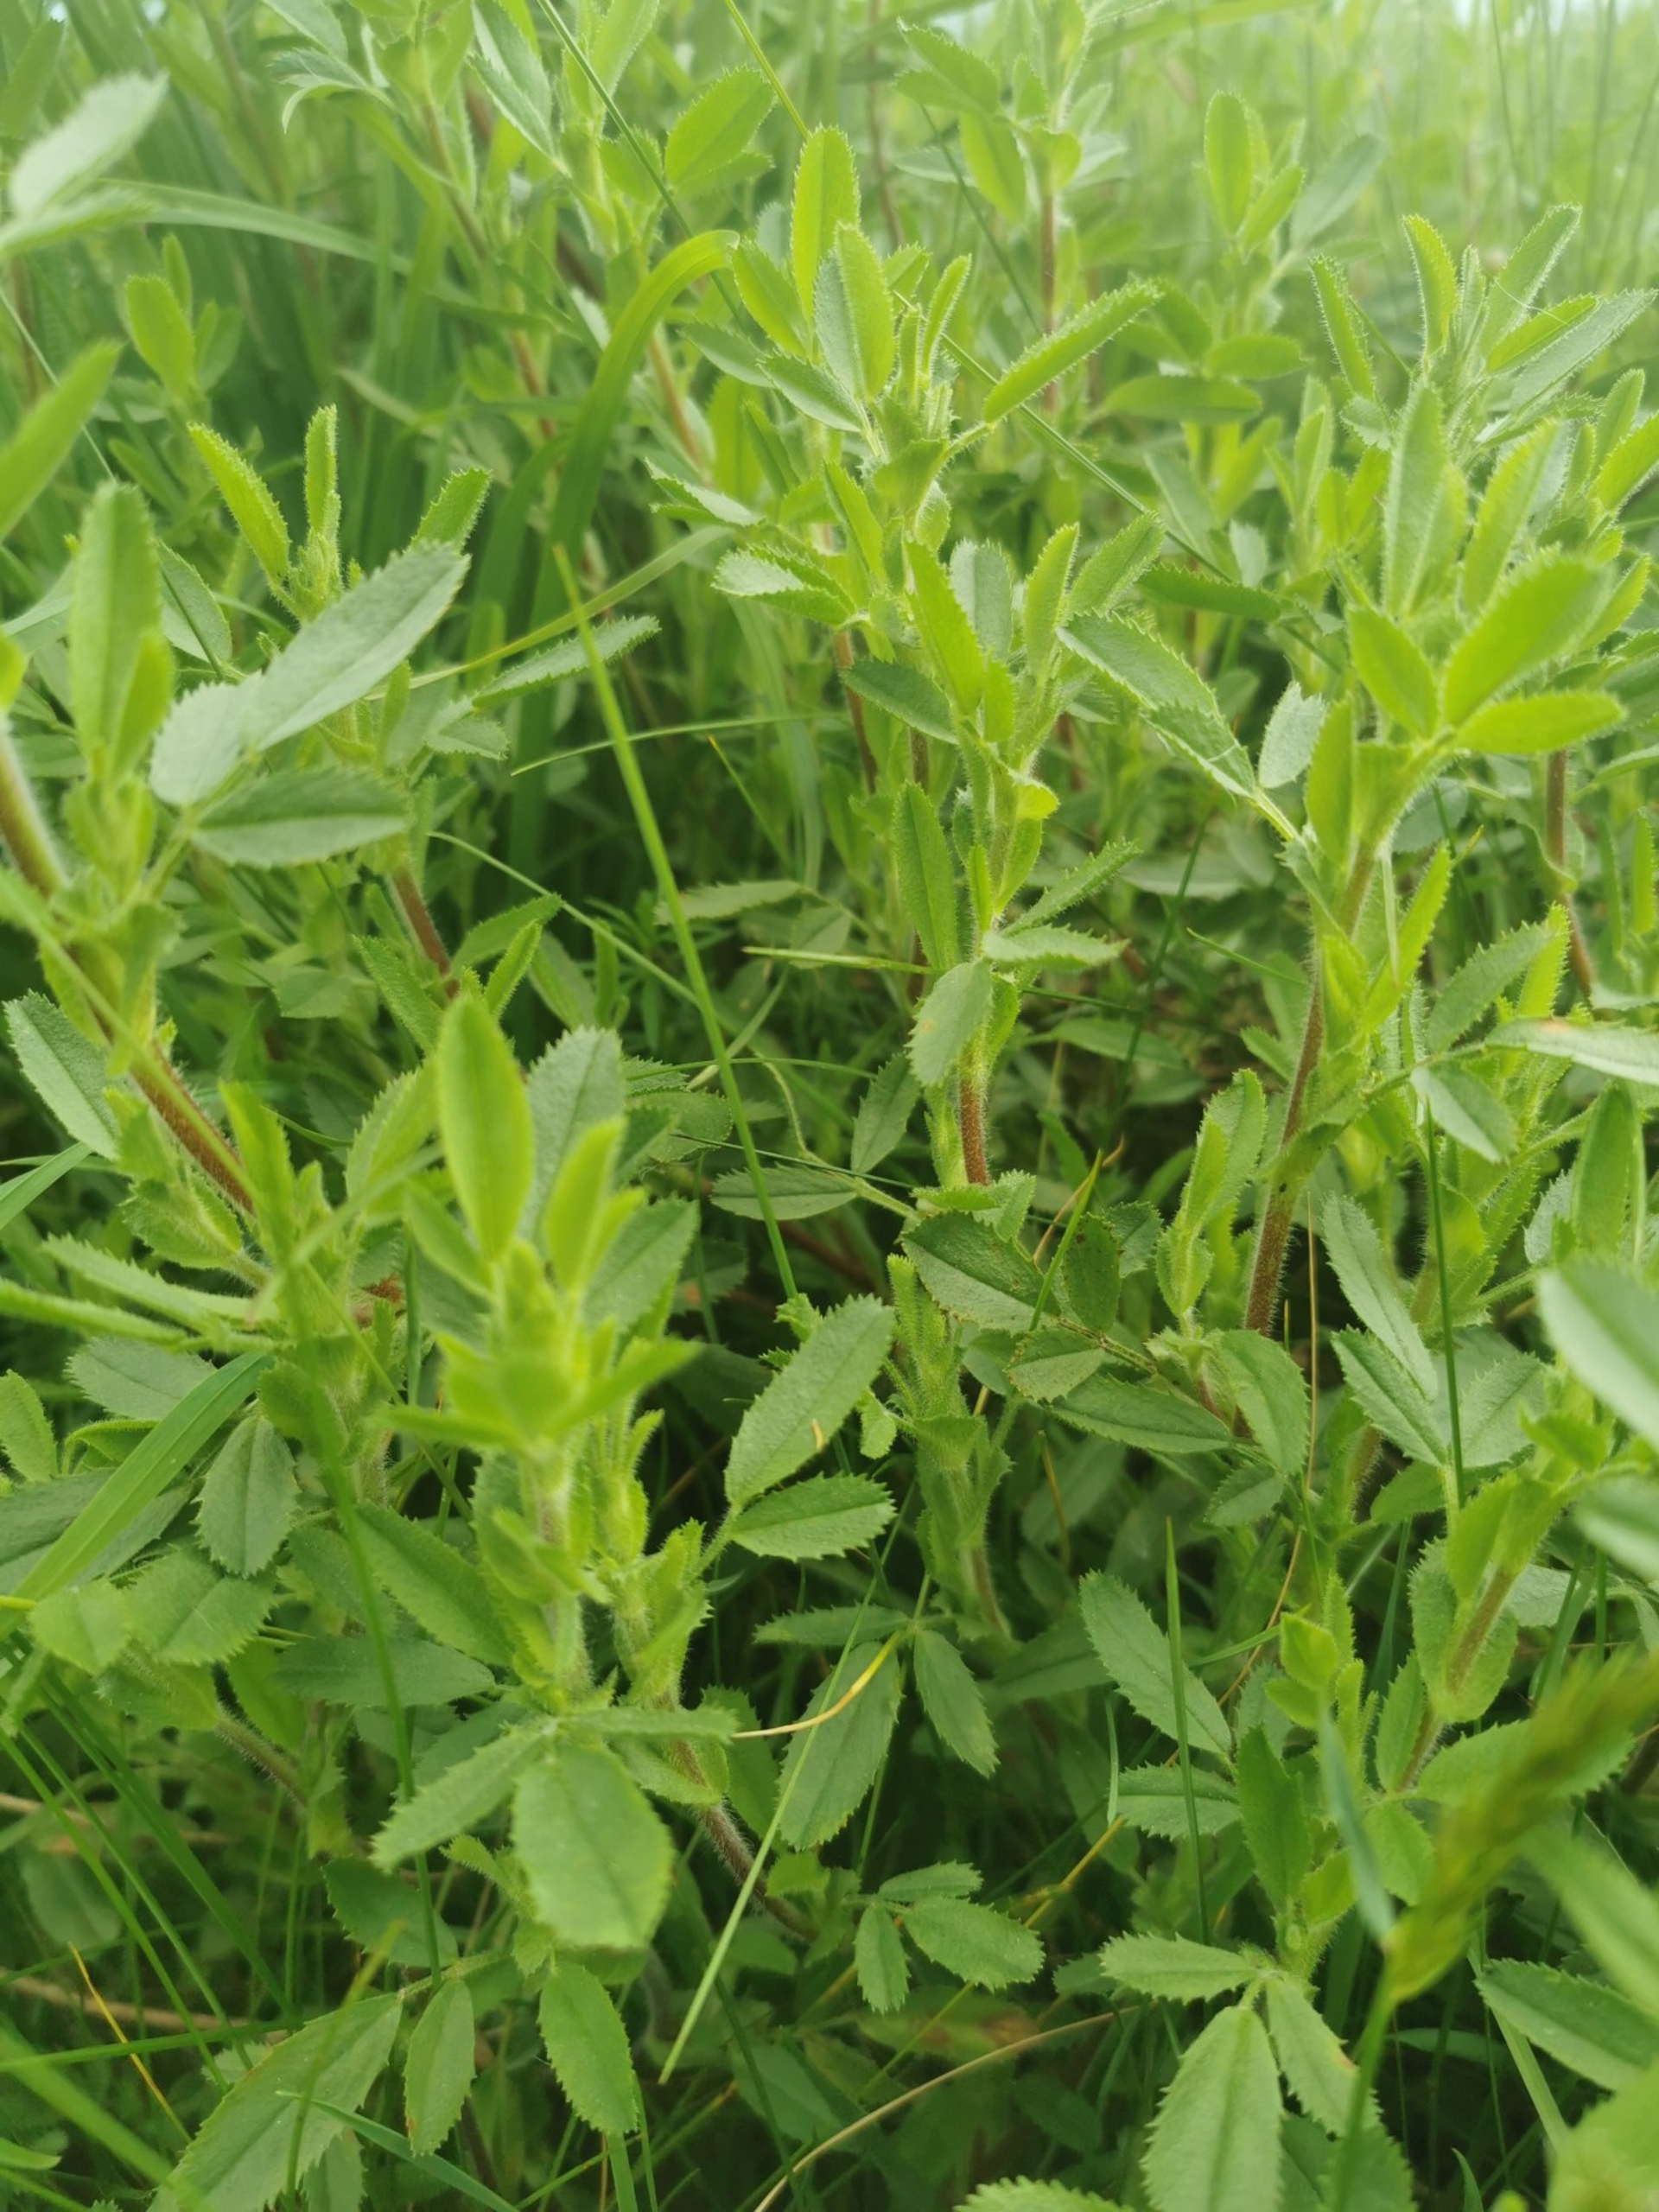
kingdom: Plantae
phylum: Tracheophyta
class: Magnoliopsida
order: Fabales
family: Fabaceae
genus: Ononis
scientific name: Ononis spinosa
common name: Mark-krageklo
